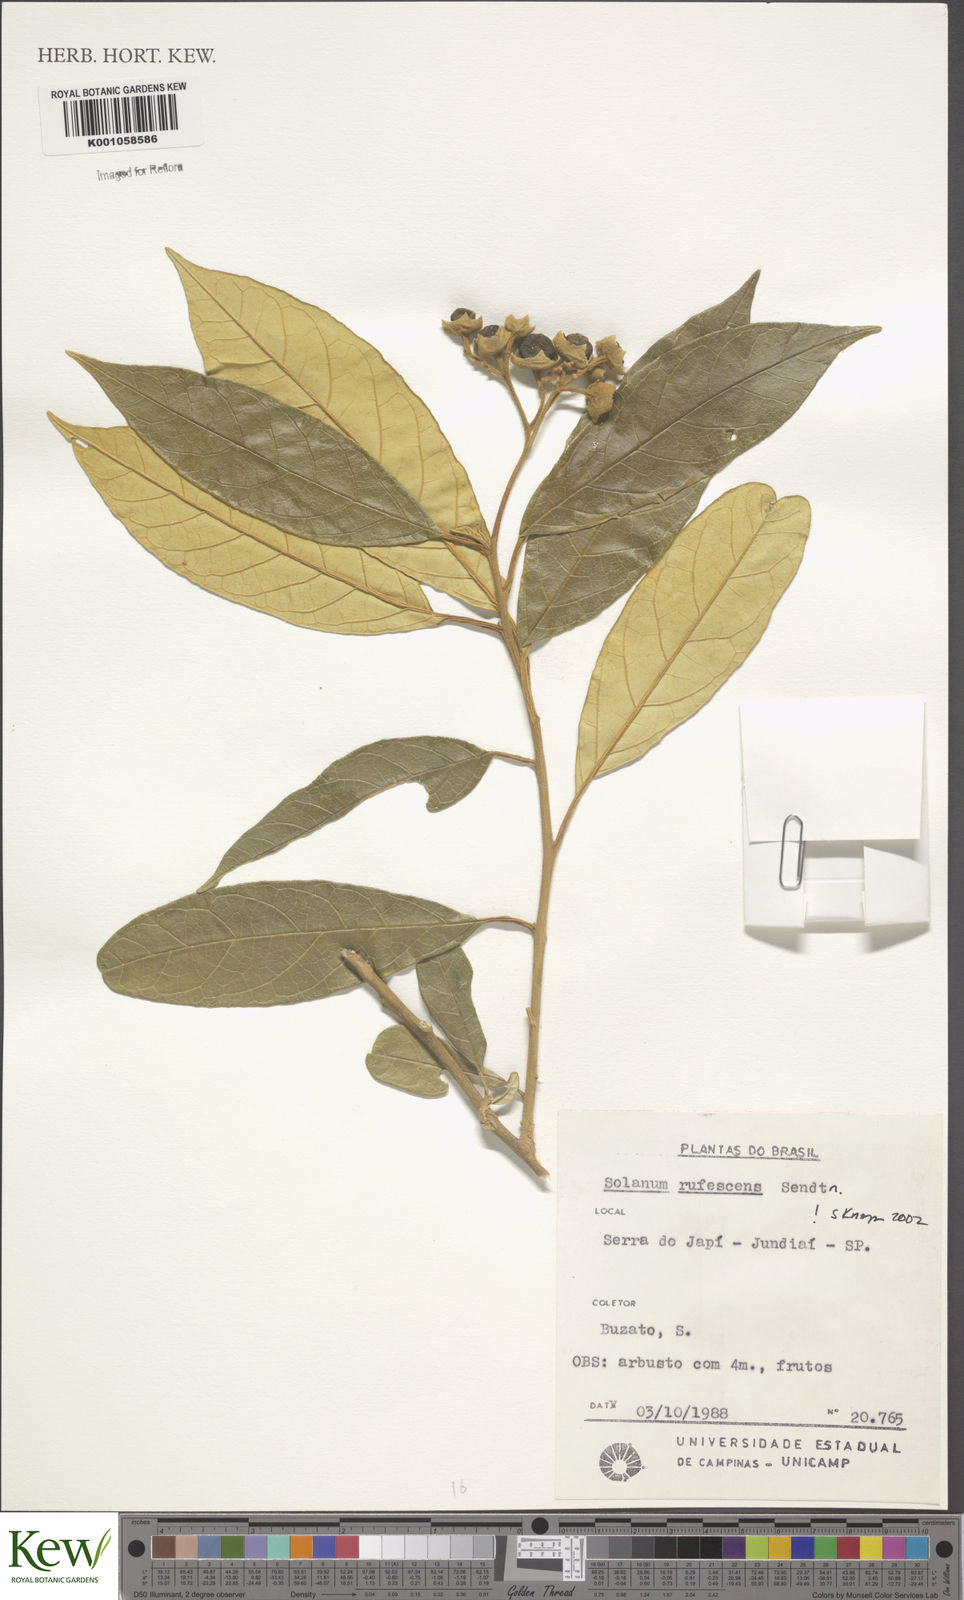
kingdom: Plantae
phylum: Tracheophyta
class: Magnoliopsida
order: Solanales
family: Solanaceae
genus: Solanum
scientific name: Solanum rufescens
